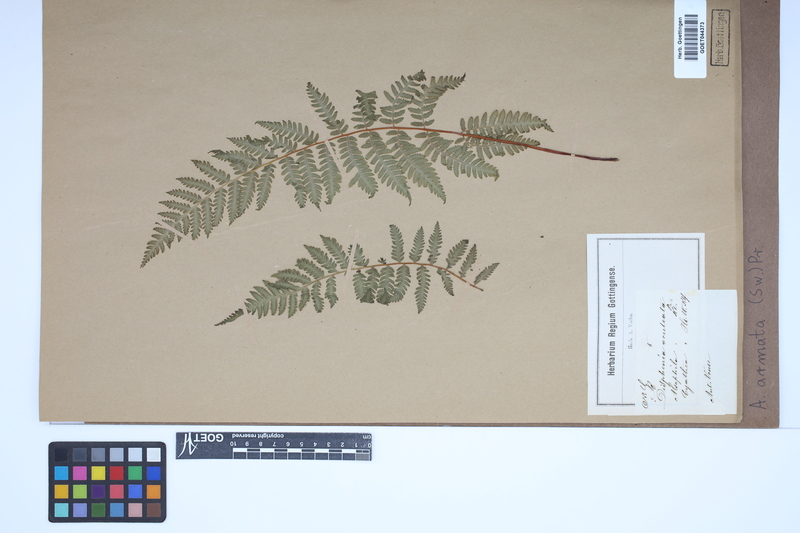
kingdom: Plantae
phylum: Tracheophyta
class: Polypodiopsida
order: Cyatheales
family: Cyatheaceae
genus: Cyathea
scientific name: Cyathea armata
